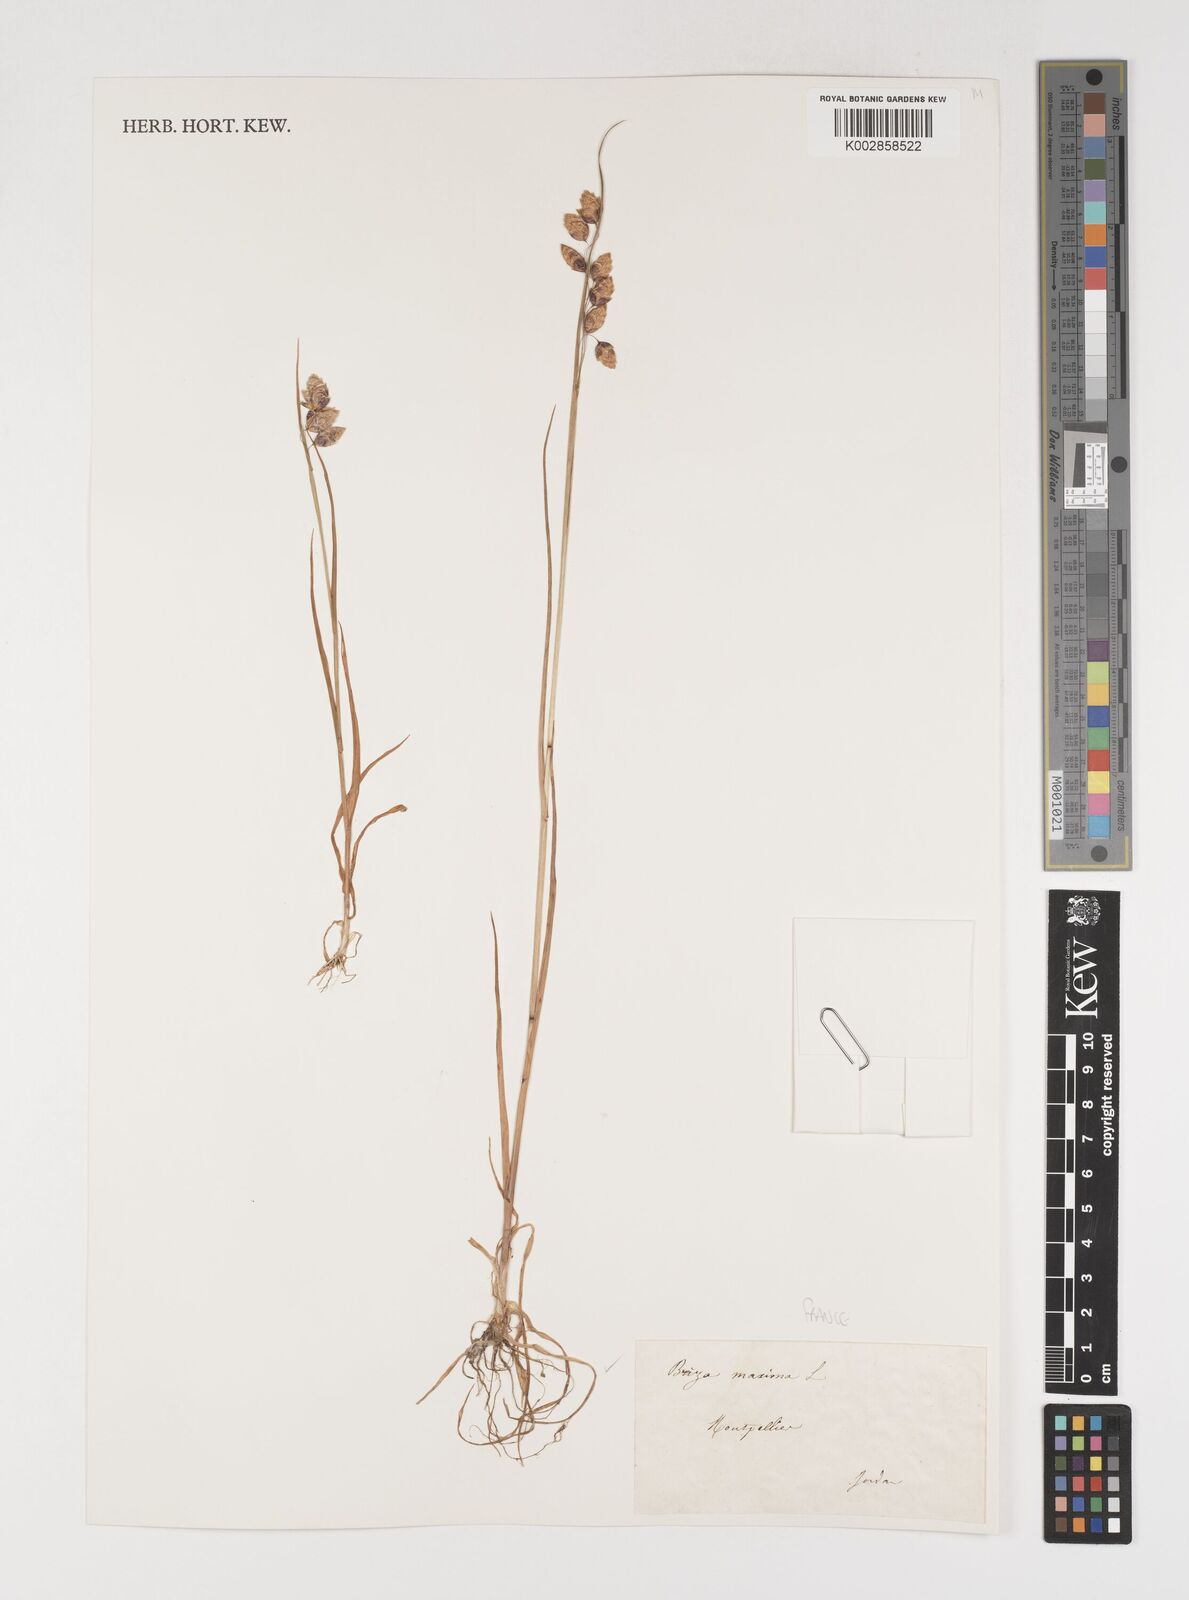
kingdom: Plantae
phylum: Tracheophyta
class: Liliopsida
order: Poales
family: Poaceae
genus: Briza
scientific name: Briza maxima
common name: Big quakinggrass
